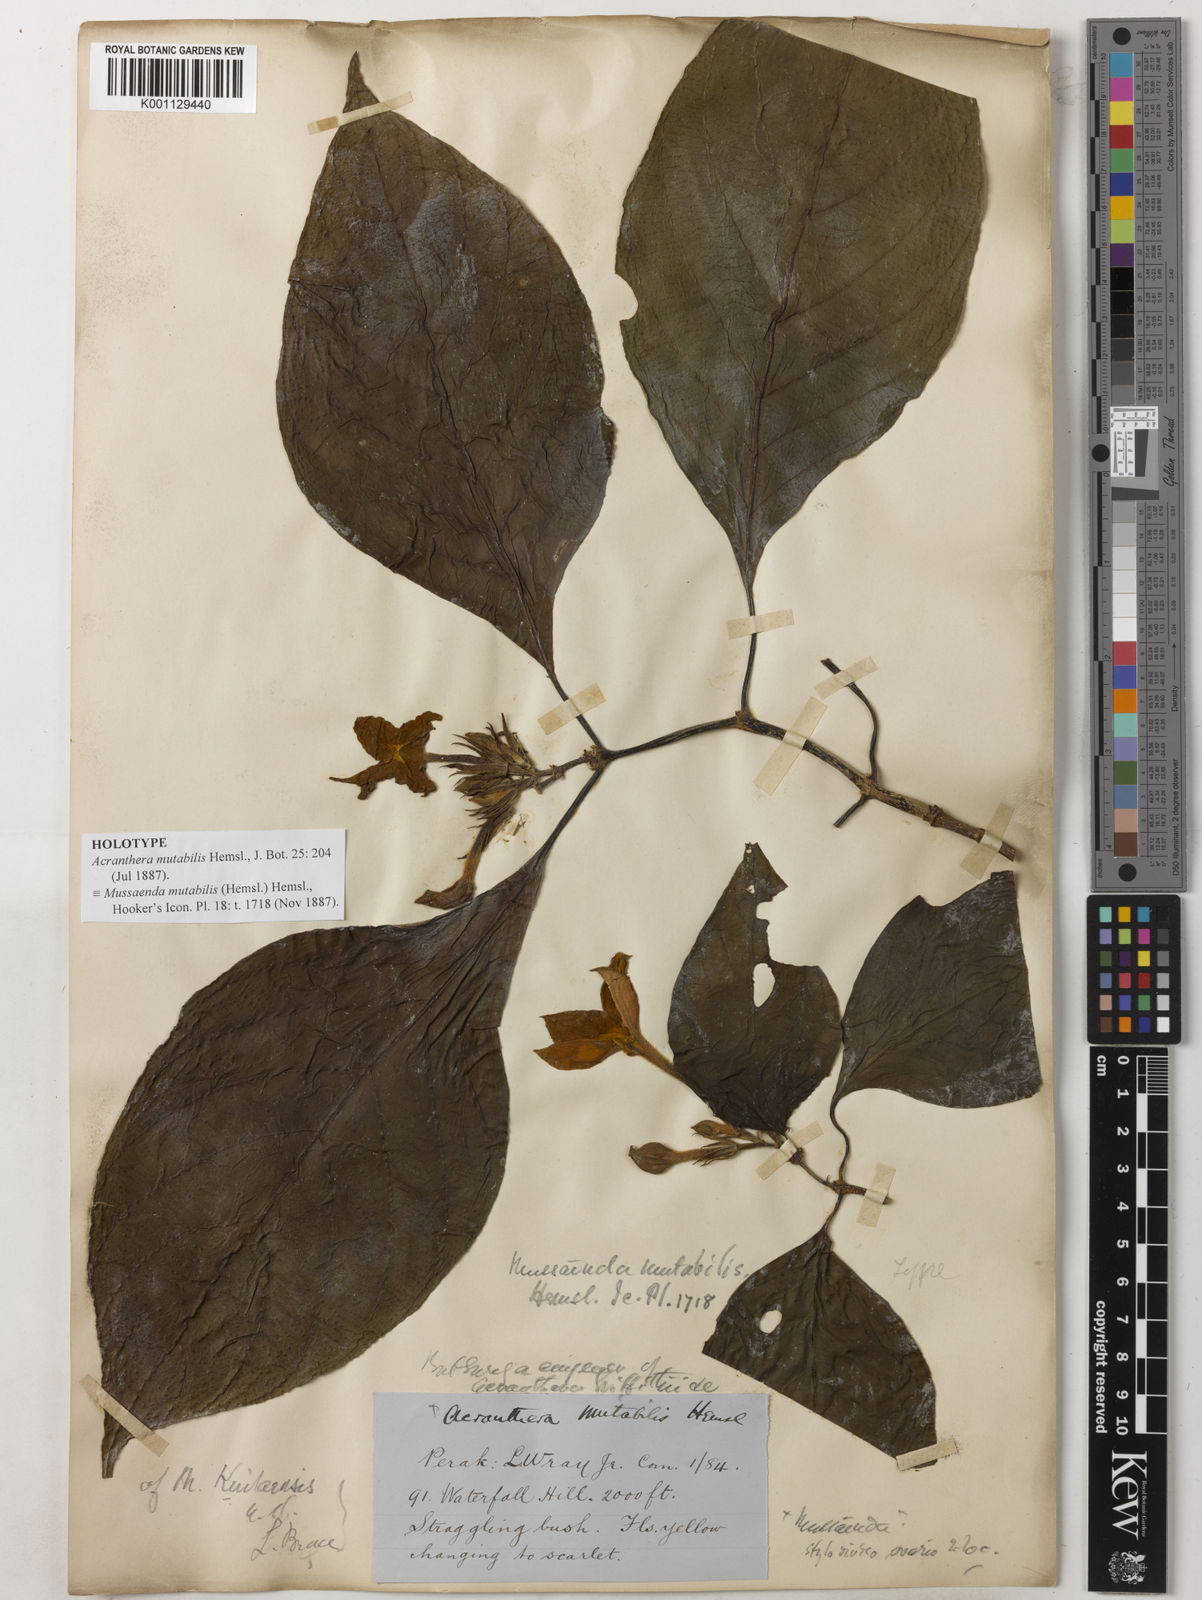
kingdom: Plantae
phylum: Tracheophyta
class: Magnoliopsida
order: Gentianales
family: Rubiaceae
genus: Mussaenda
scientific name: Mussaenda maingayi
